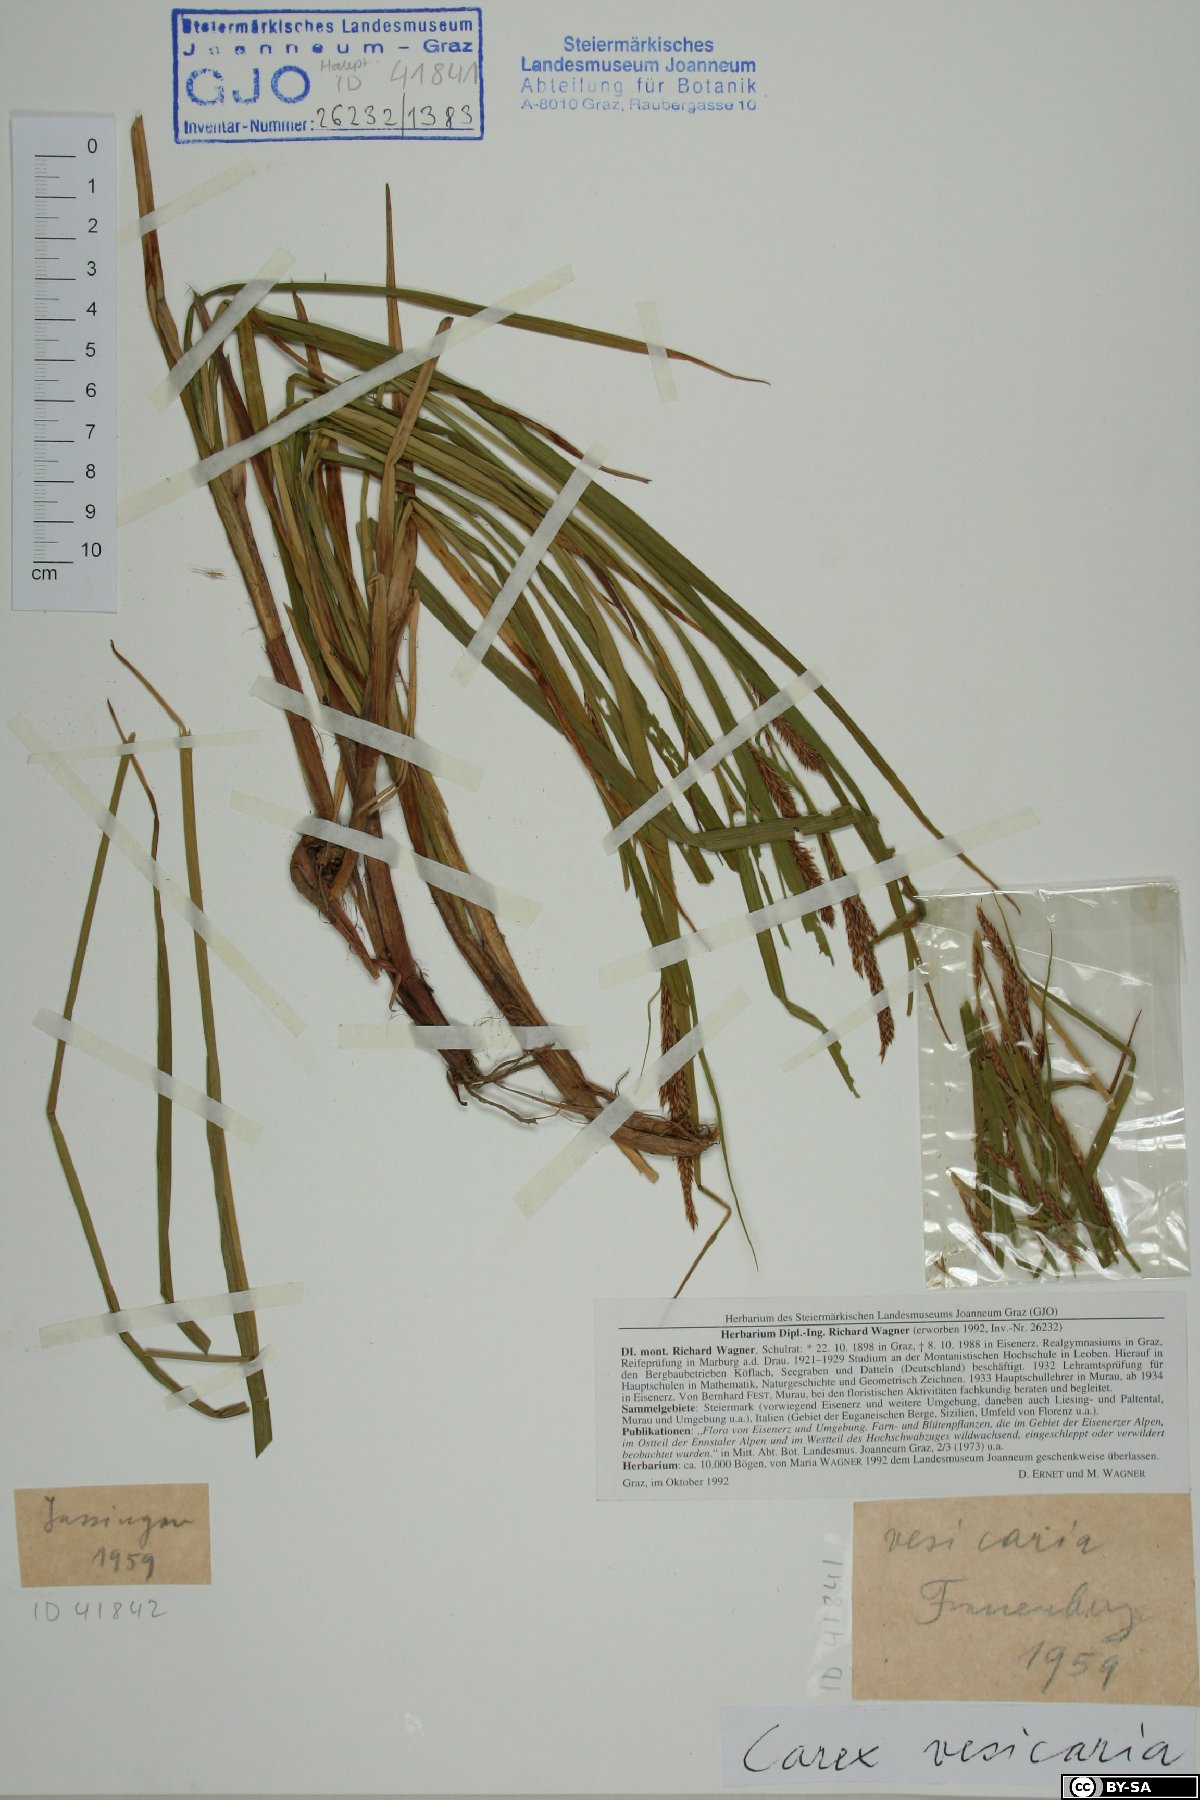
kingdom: Plantae
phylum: Tracheophyta
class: Liliopsida
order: Poales
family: Cyperaceae
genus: Carex
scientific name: Carex vesicaria
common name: Bladder-sedge
